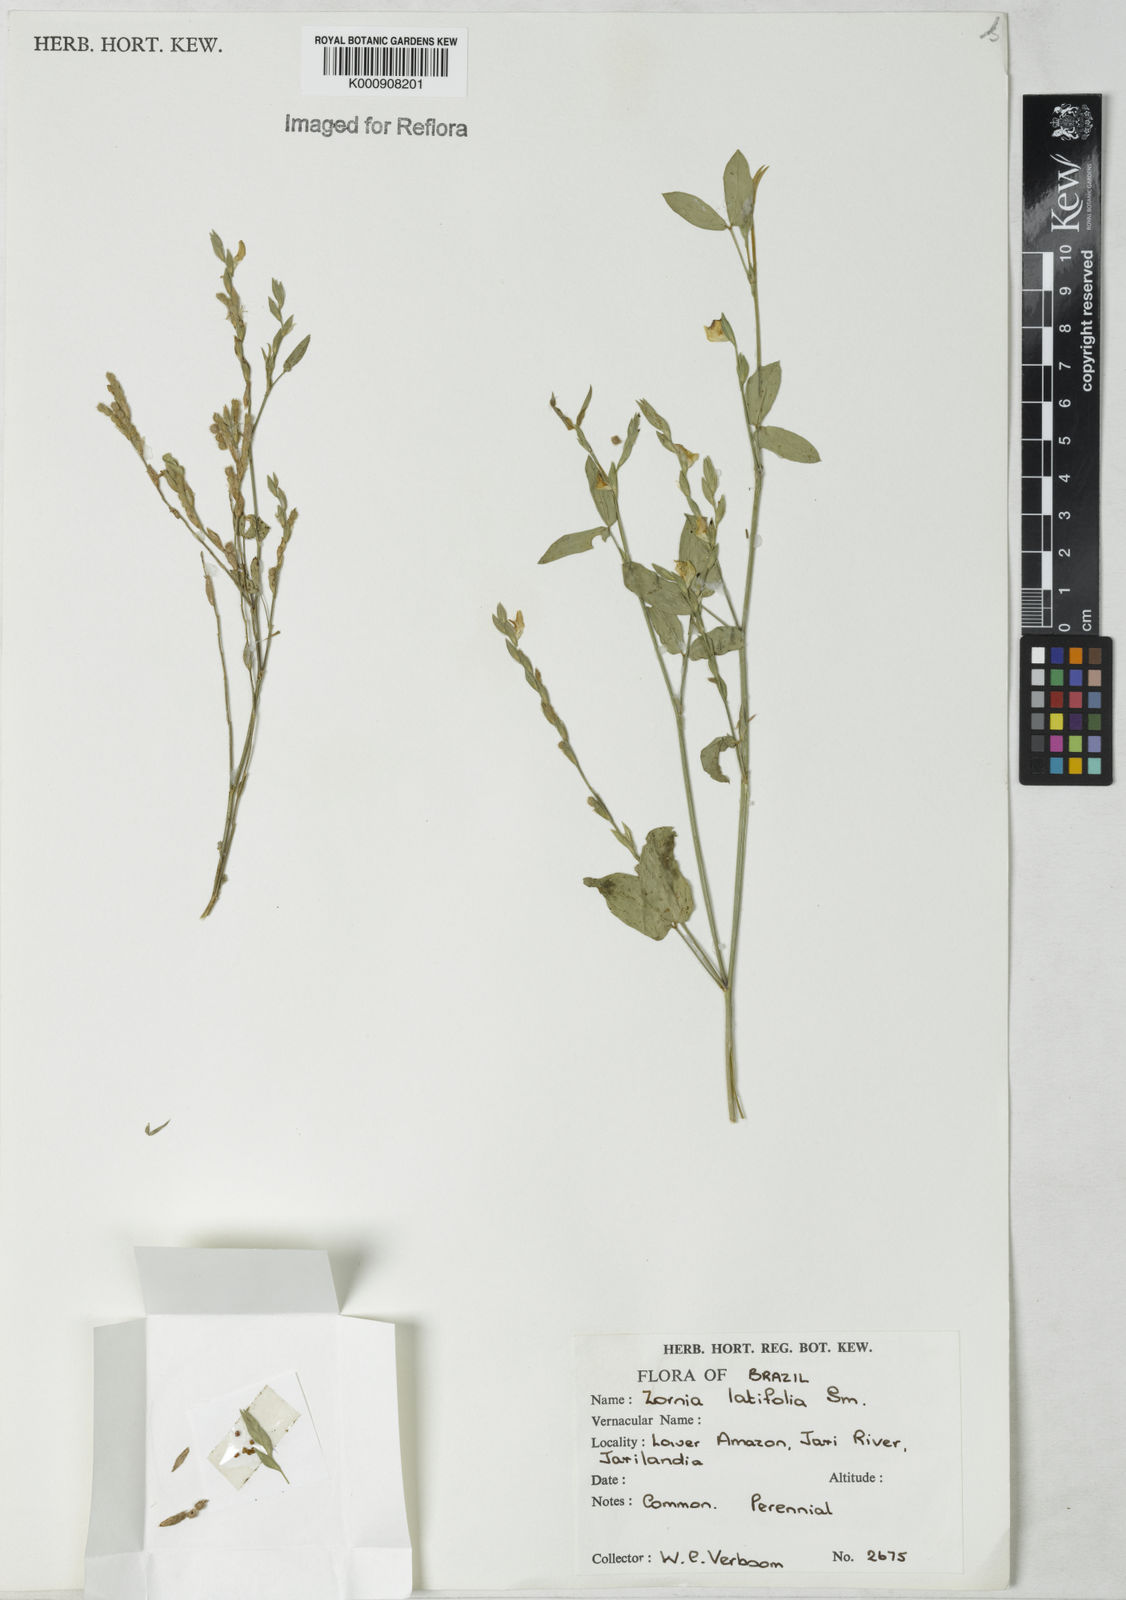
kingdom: Plantae
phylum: Tracheophyta
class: Magnoliopsida
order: Fabales
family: Fabaceae
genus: Zornia
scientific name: Zornia latifolia
